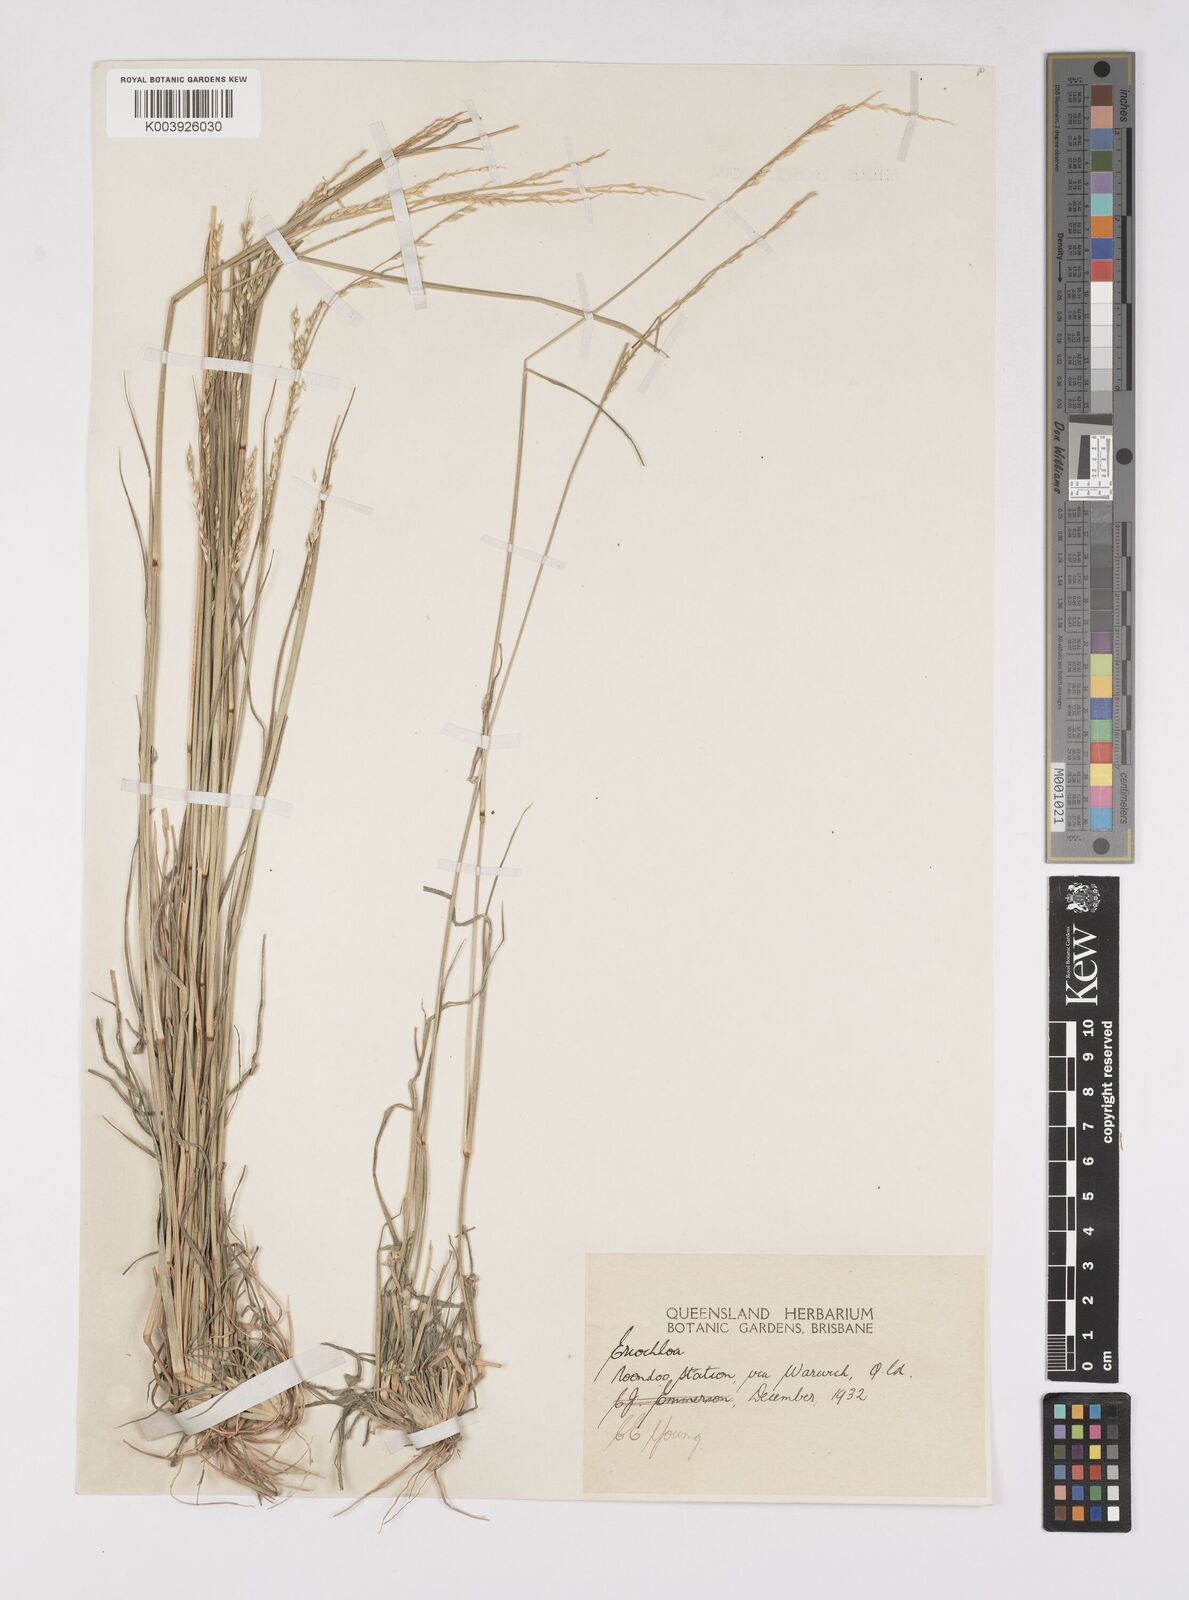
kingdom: Plantae
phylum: Tracheophyta
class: Liliopsida
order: Poales
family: Poaceae
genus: Eriochloa
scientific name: Eriochloa
